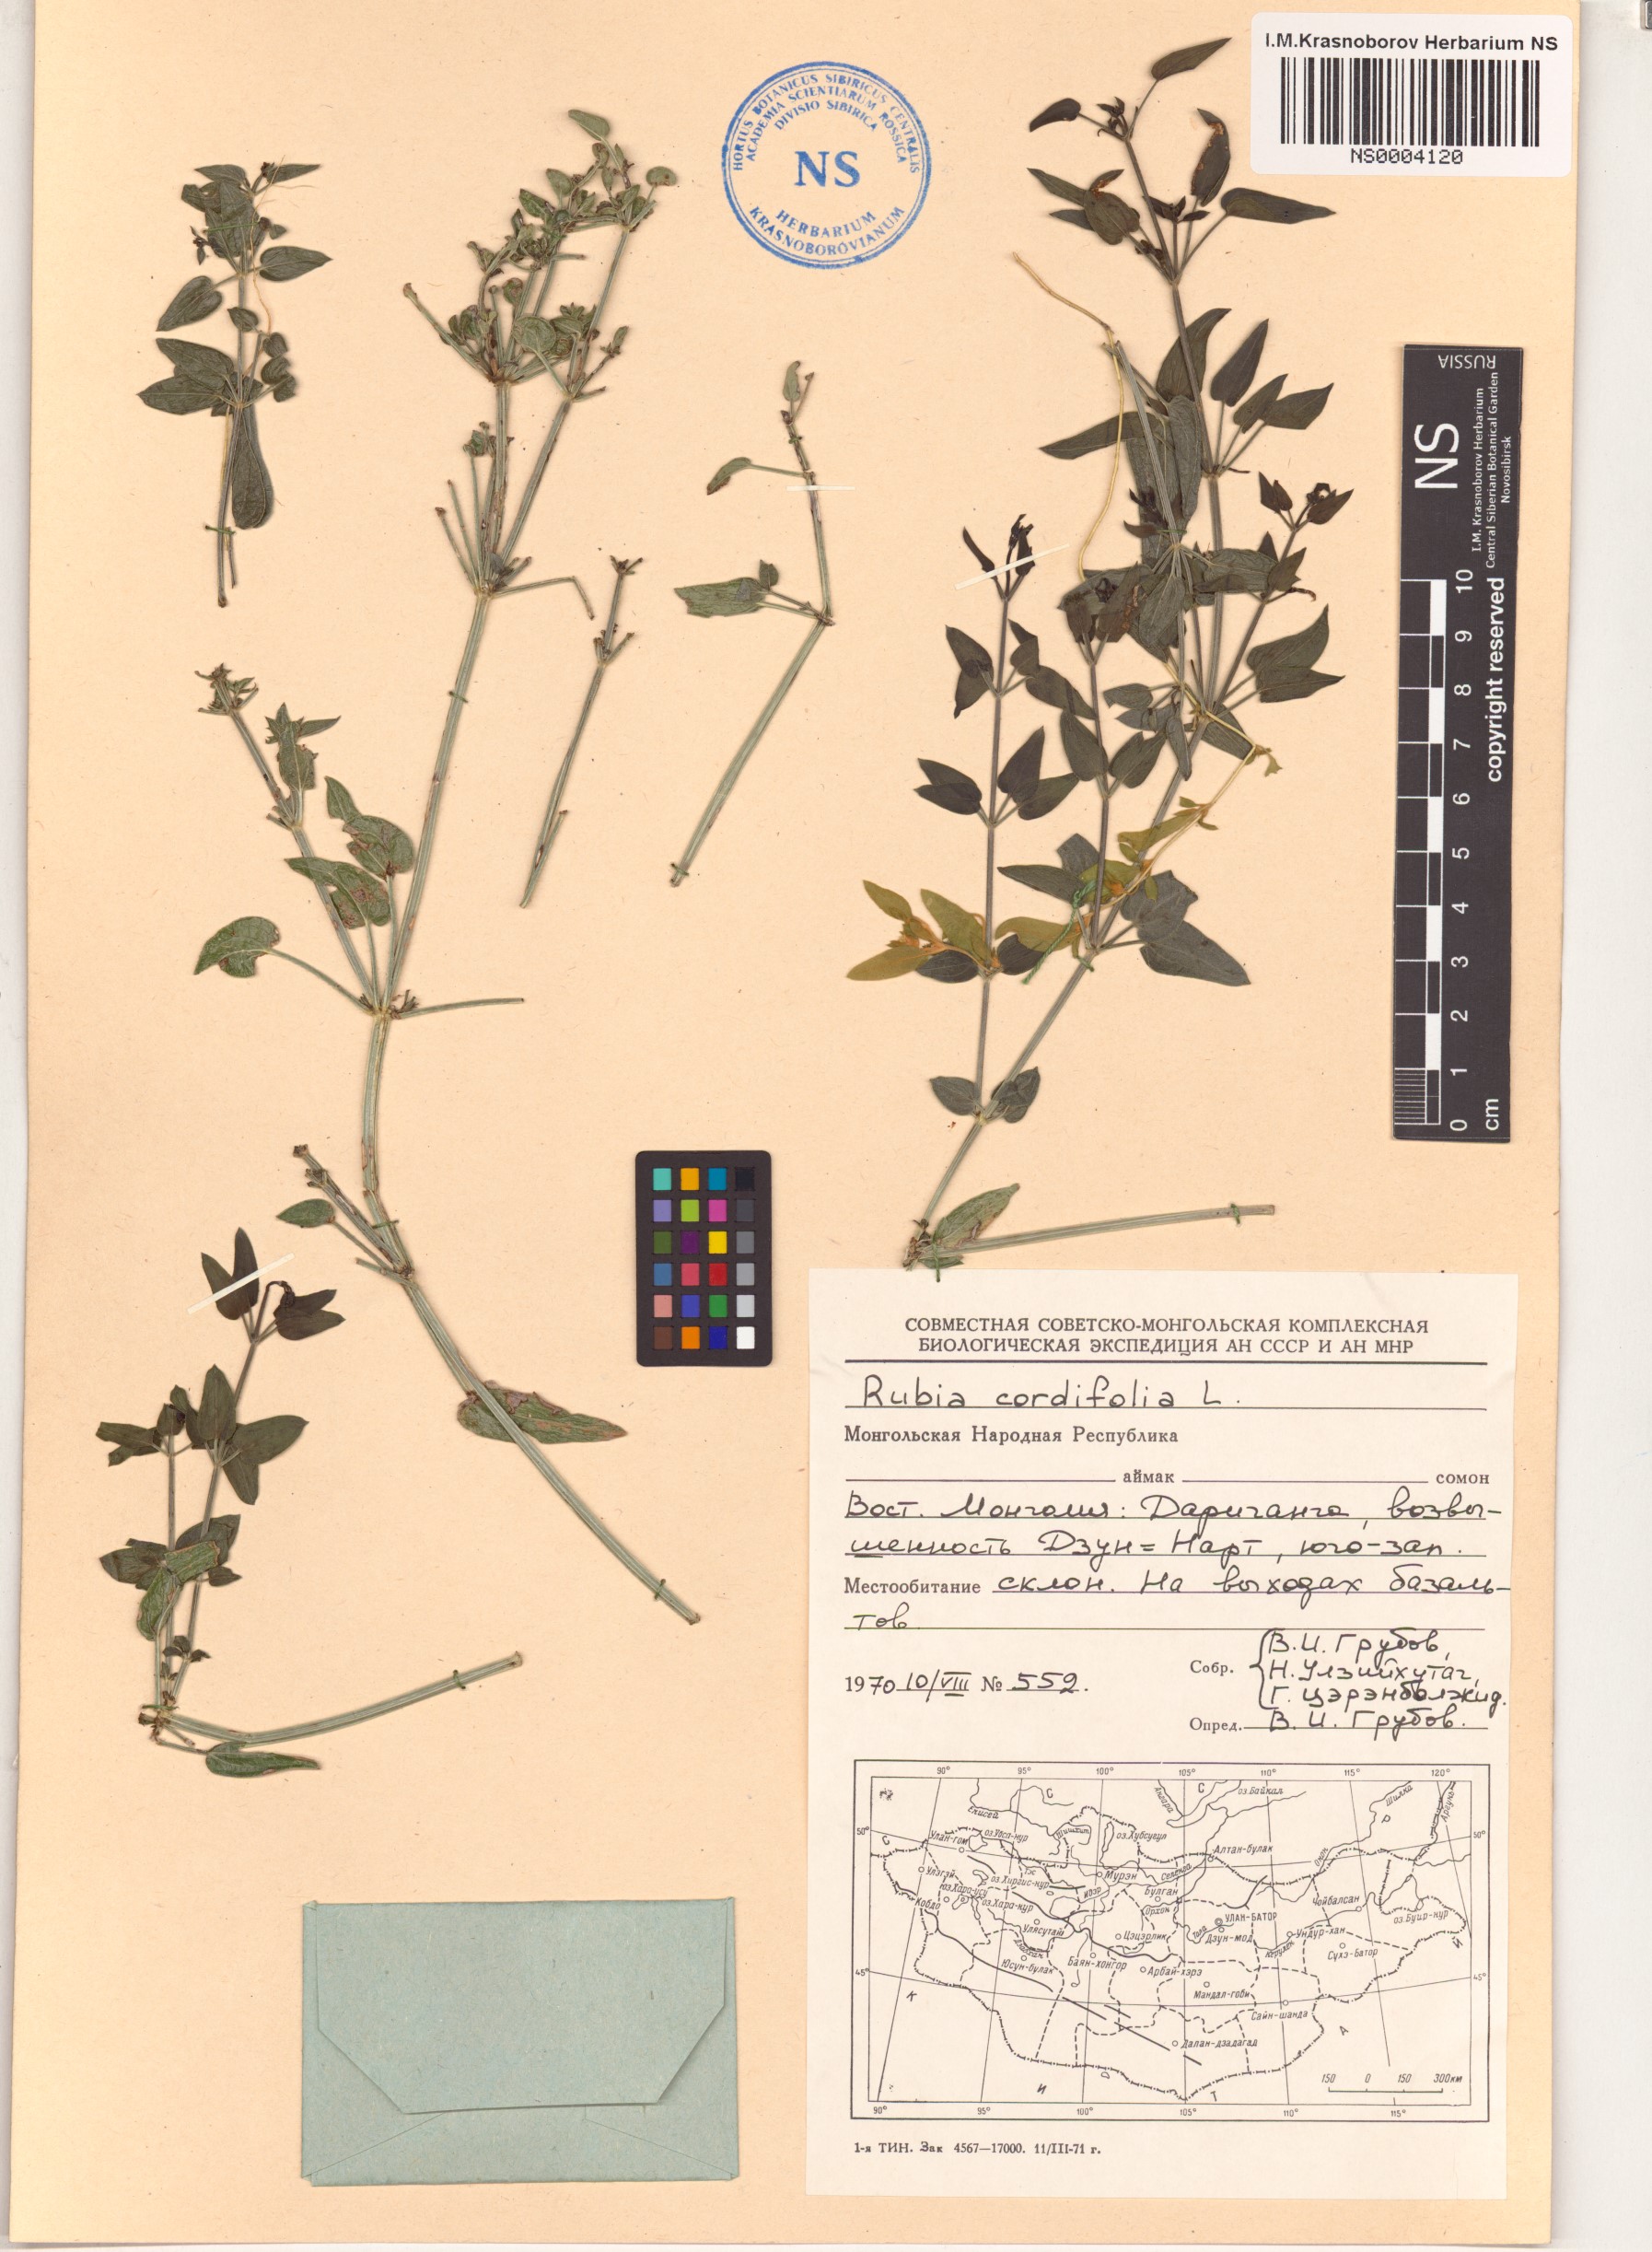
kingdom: Plantae
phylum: Tracheophyta
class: Magnoliopsida
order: Gentianales
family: Rubiaceae
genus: Rubia
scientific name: Rubia cordifolia
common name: Indian madder
